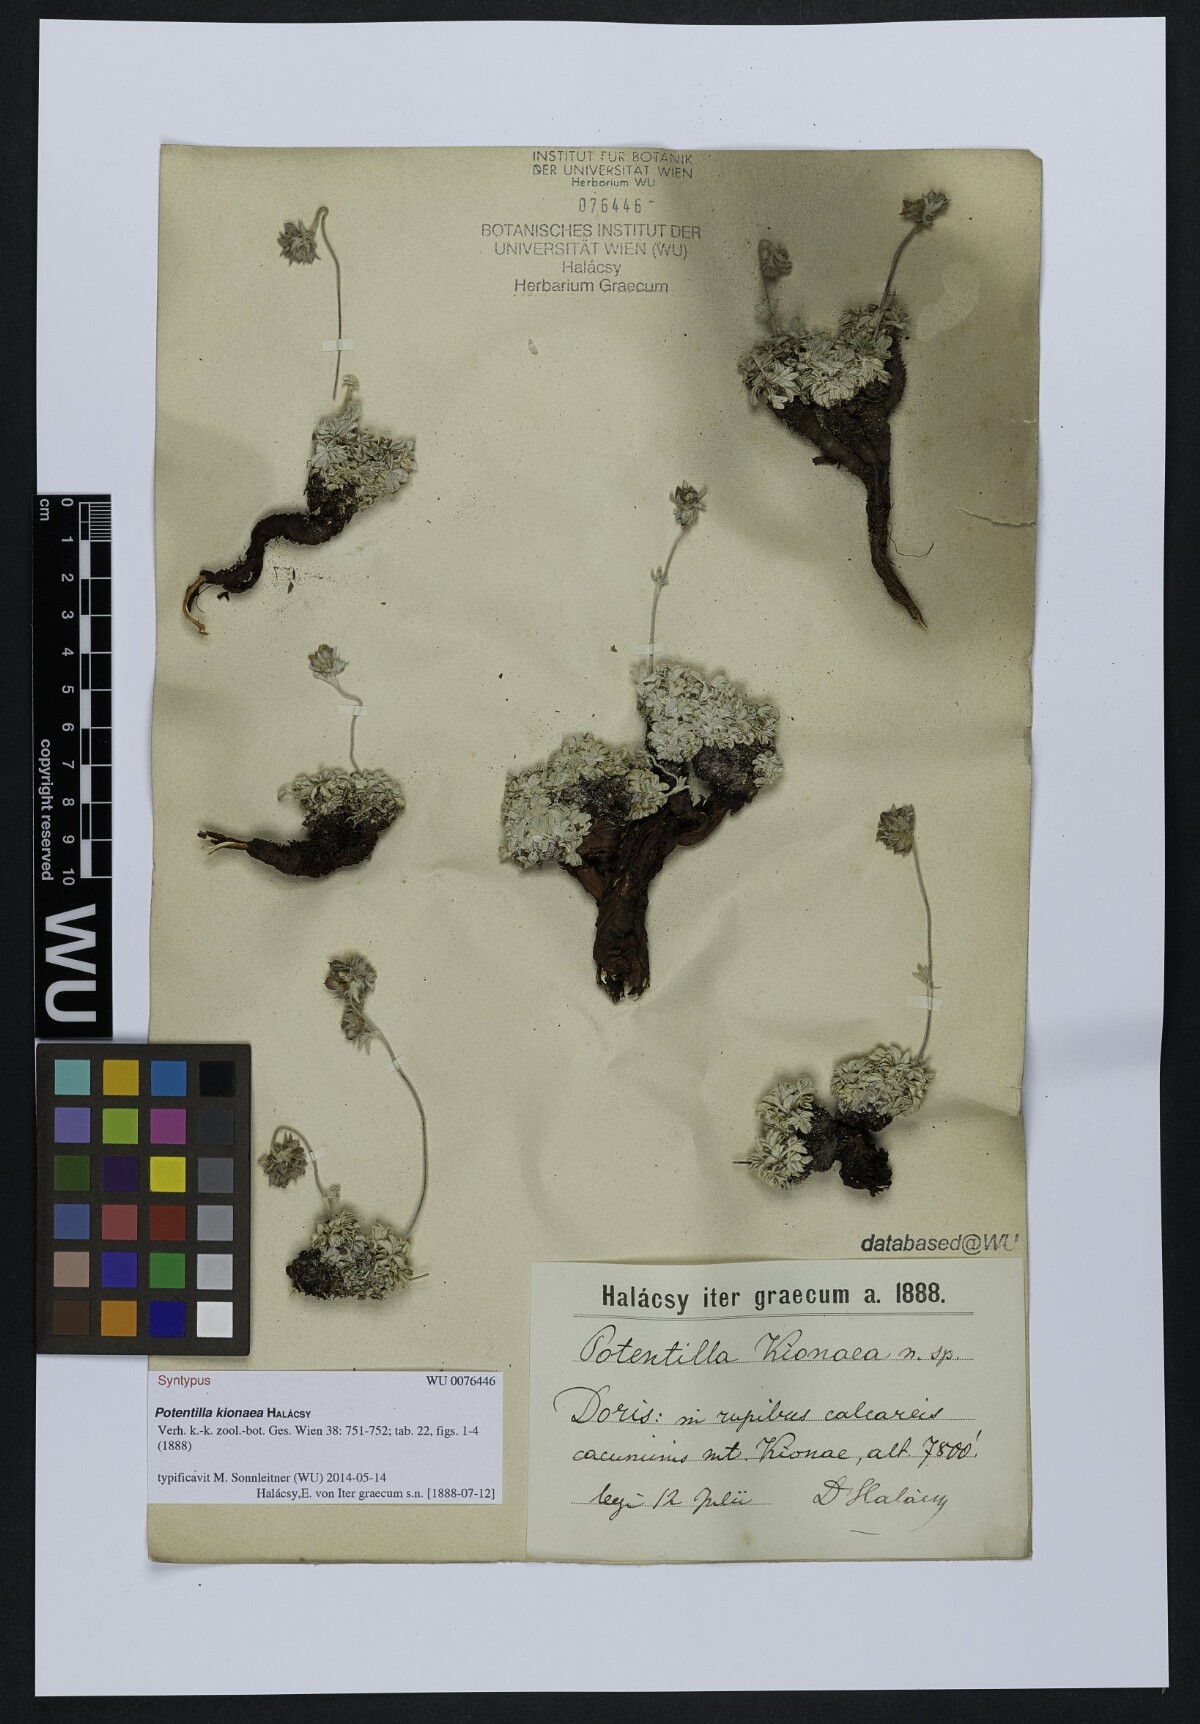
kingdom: Plantae
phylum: Tracheophyta
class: Magnoliopsida
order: Rosales
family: Rosaceae
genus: Potentilla
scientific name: Potentilla kionaea
